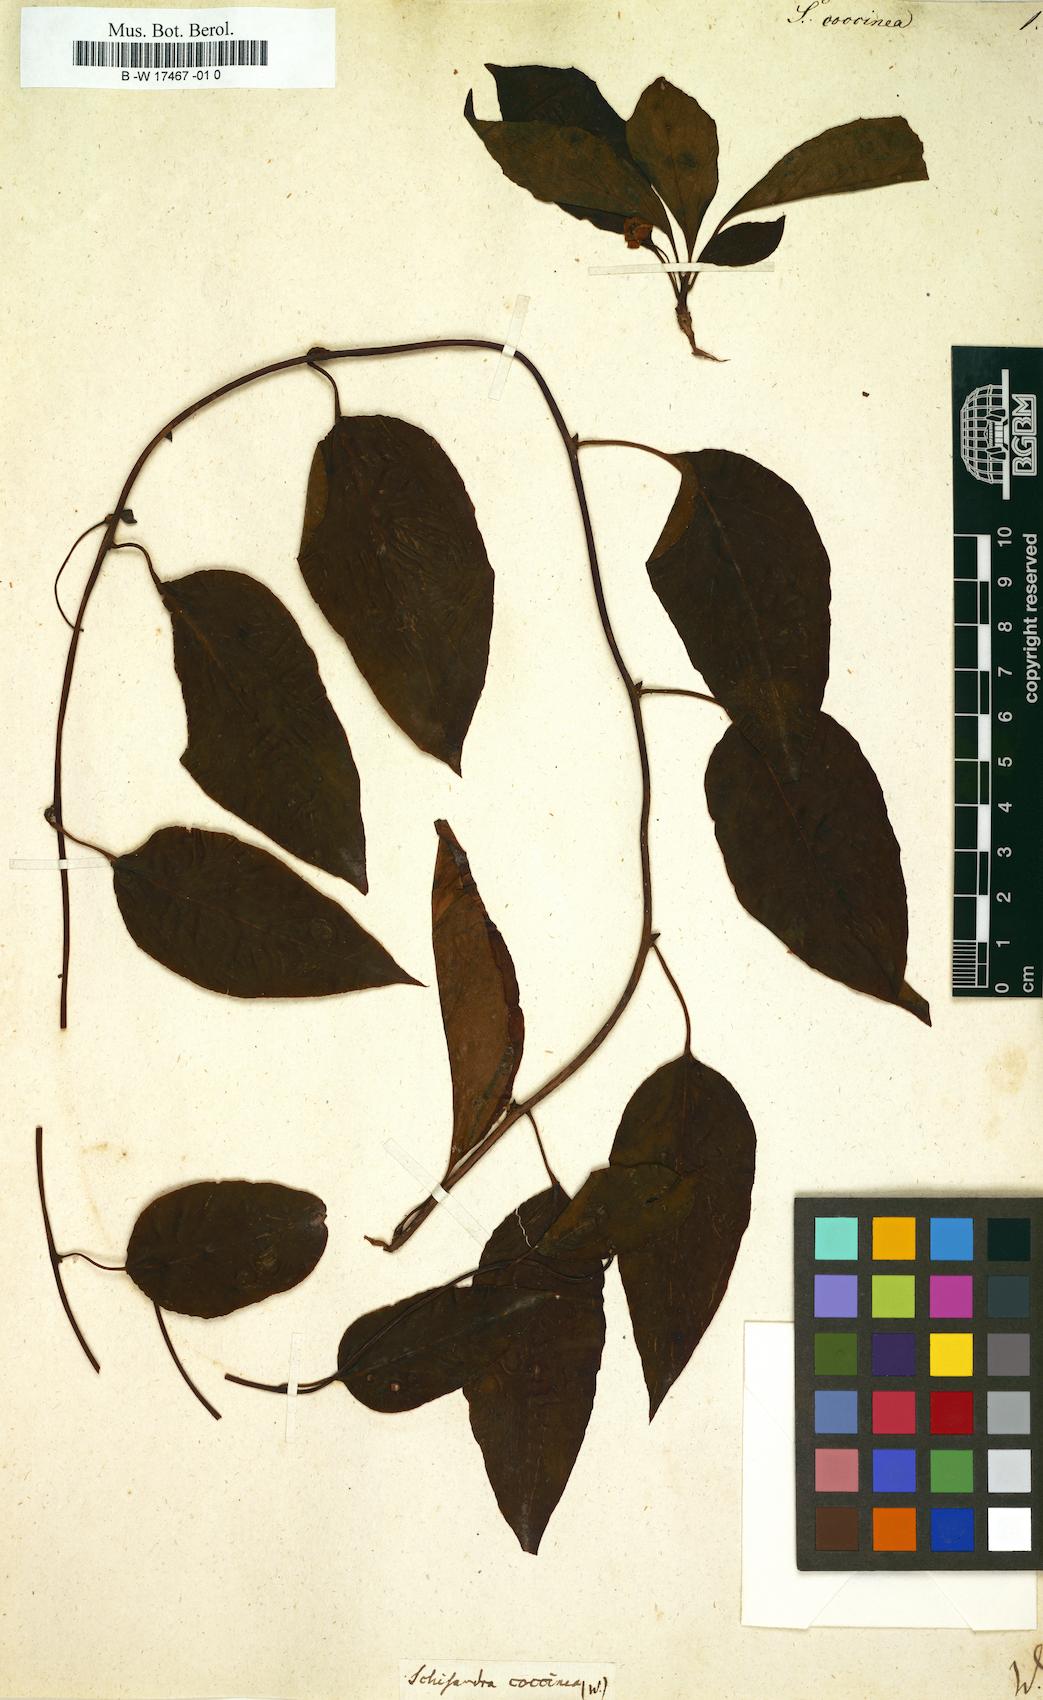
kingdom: Plantae
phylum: Tracheophyta
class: Magnoliopsida
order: Austrobaileyales
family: Schisandraceae
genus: Schisandra
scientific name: Schisandra glabra
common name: Bay-starvine
